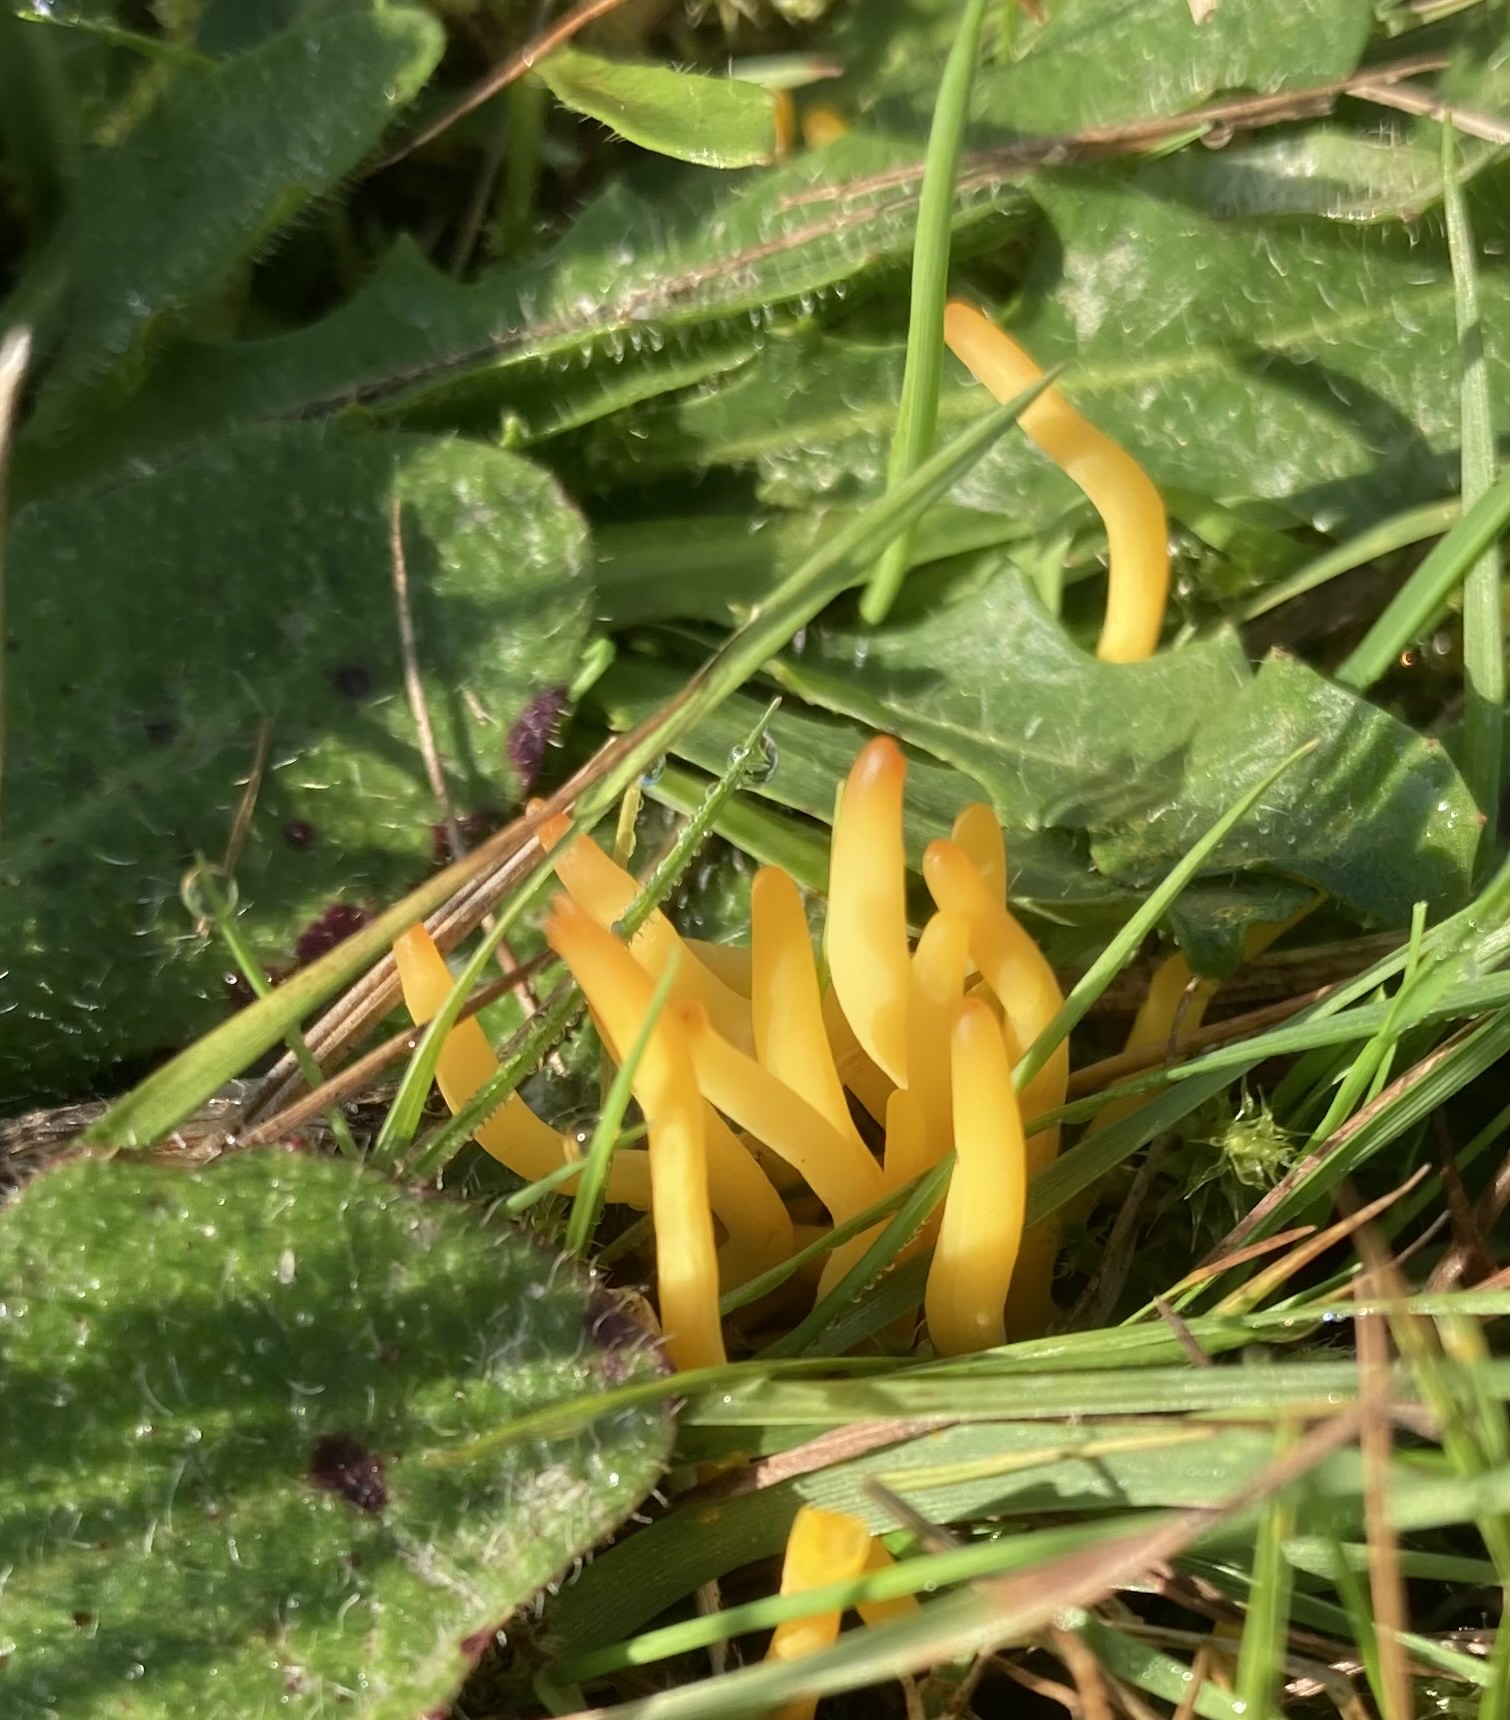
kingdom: Fungi
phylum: Basidiomycota
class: Agaricomycetes
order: Agaricales
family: Clavariaceae
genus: Clavulinopsis
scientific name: Clavulinopsis
